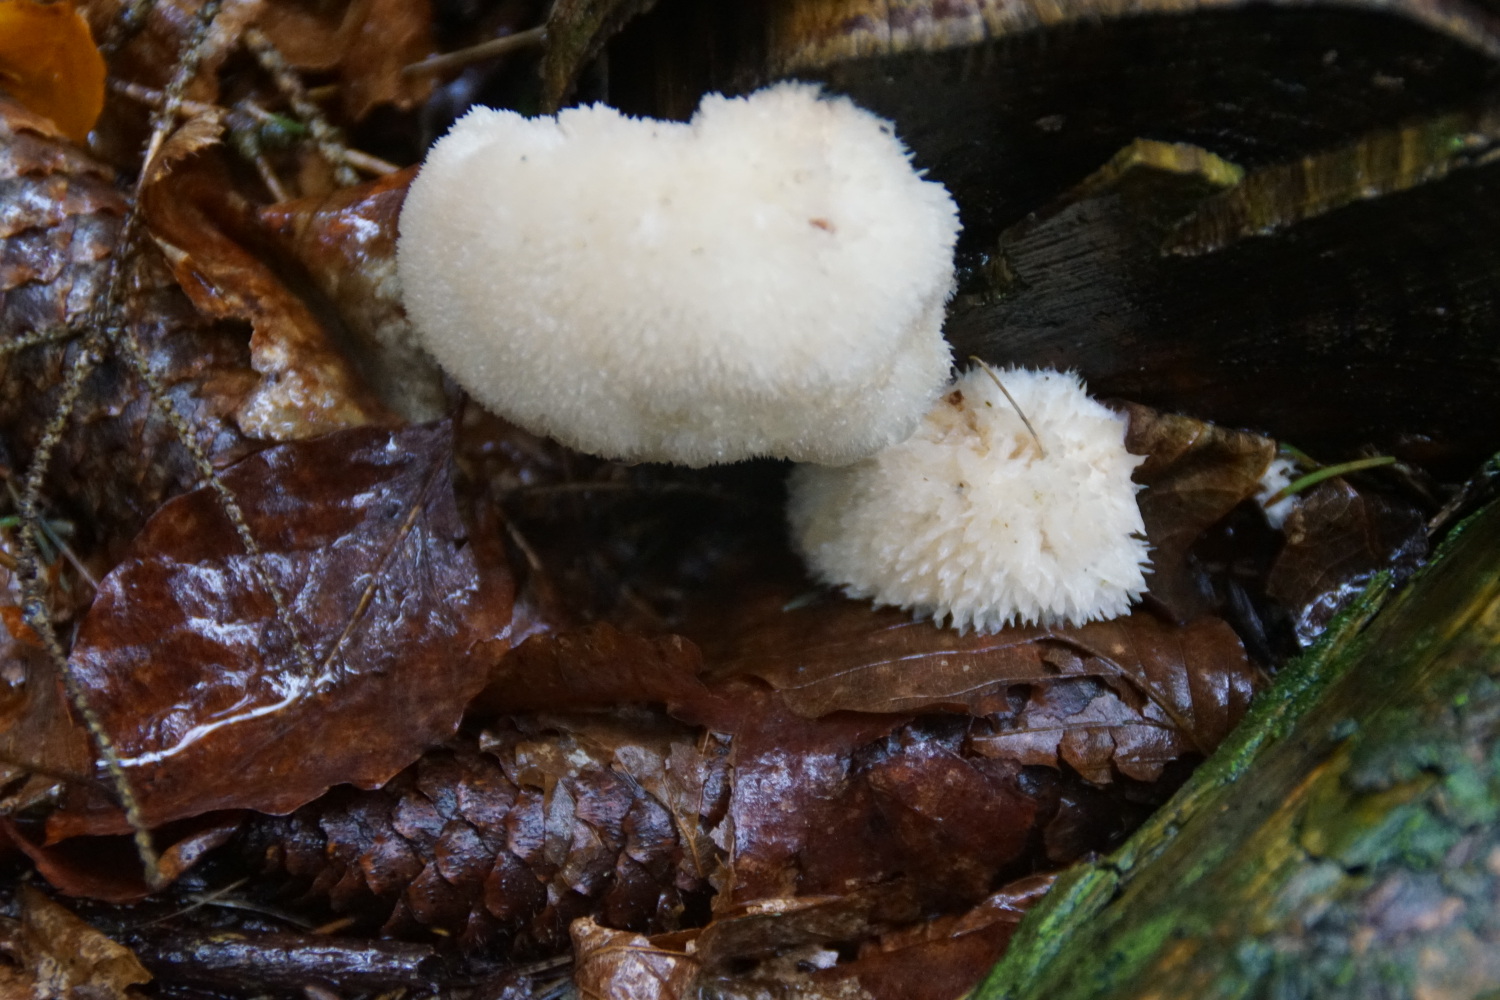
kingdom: Fungi
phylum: Basidiomycota
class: Agaricomycetes
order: Polyporales
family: Dacryobolaceae
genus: Postia
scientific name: Postia ptychogaster
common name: støvende kødporesvamp
